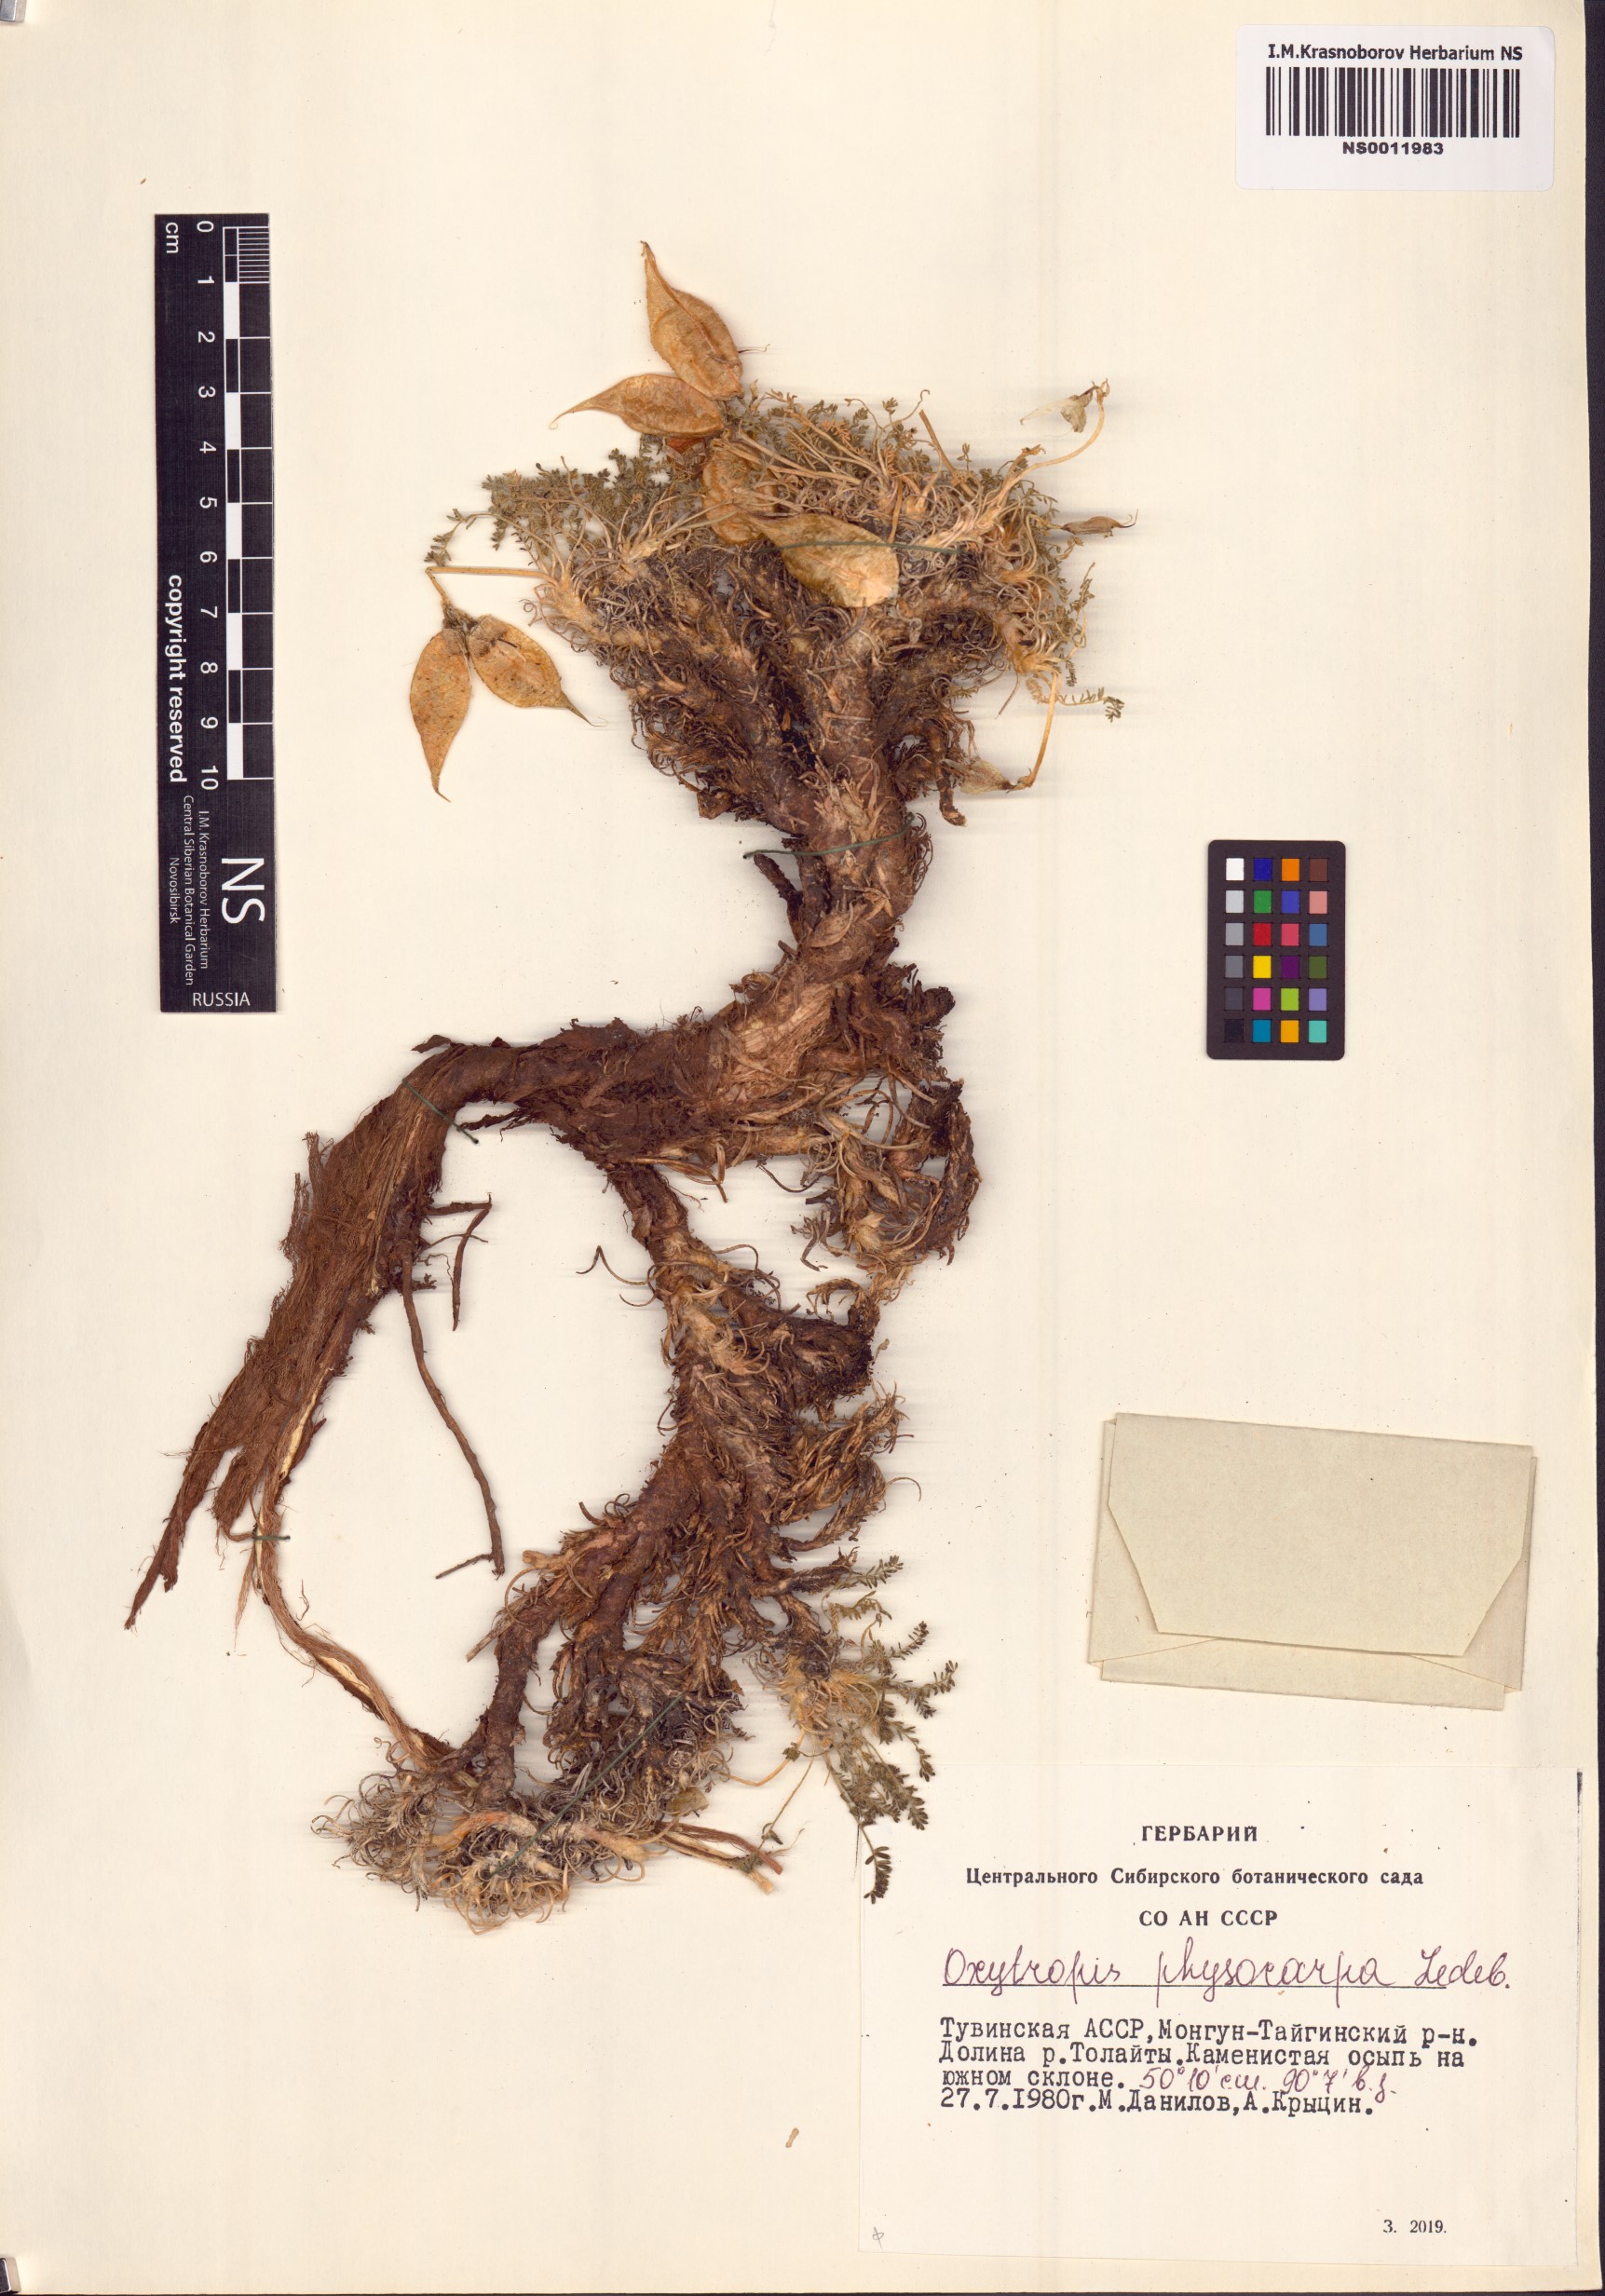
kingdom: Plantae
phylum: Tracheophyta
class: Magnoliopsida
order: Fabales
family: Fabaceae
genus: Oxytropis
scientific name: Oxytropis physocarpa
